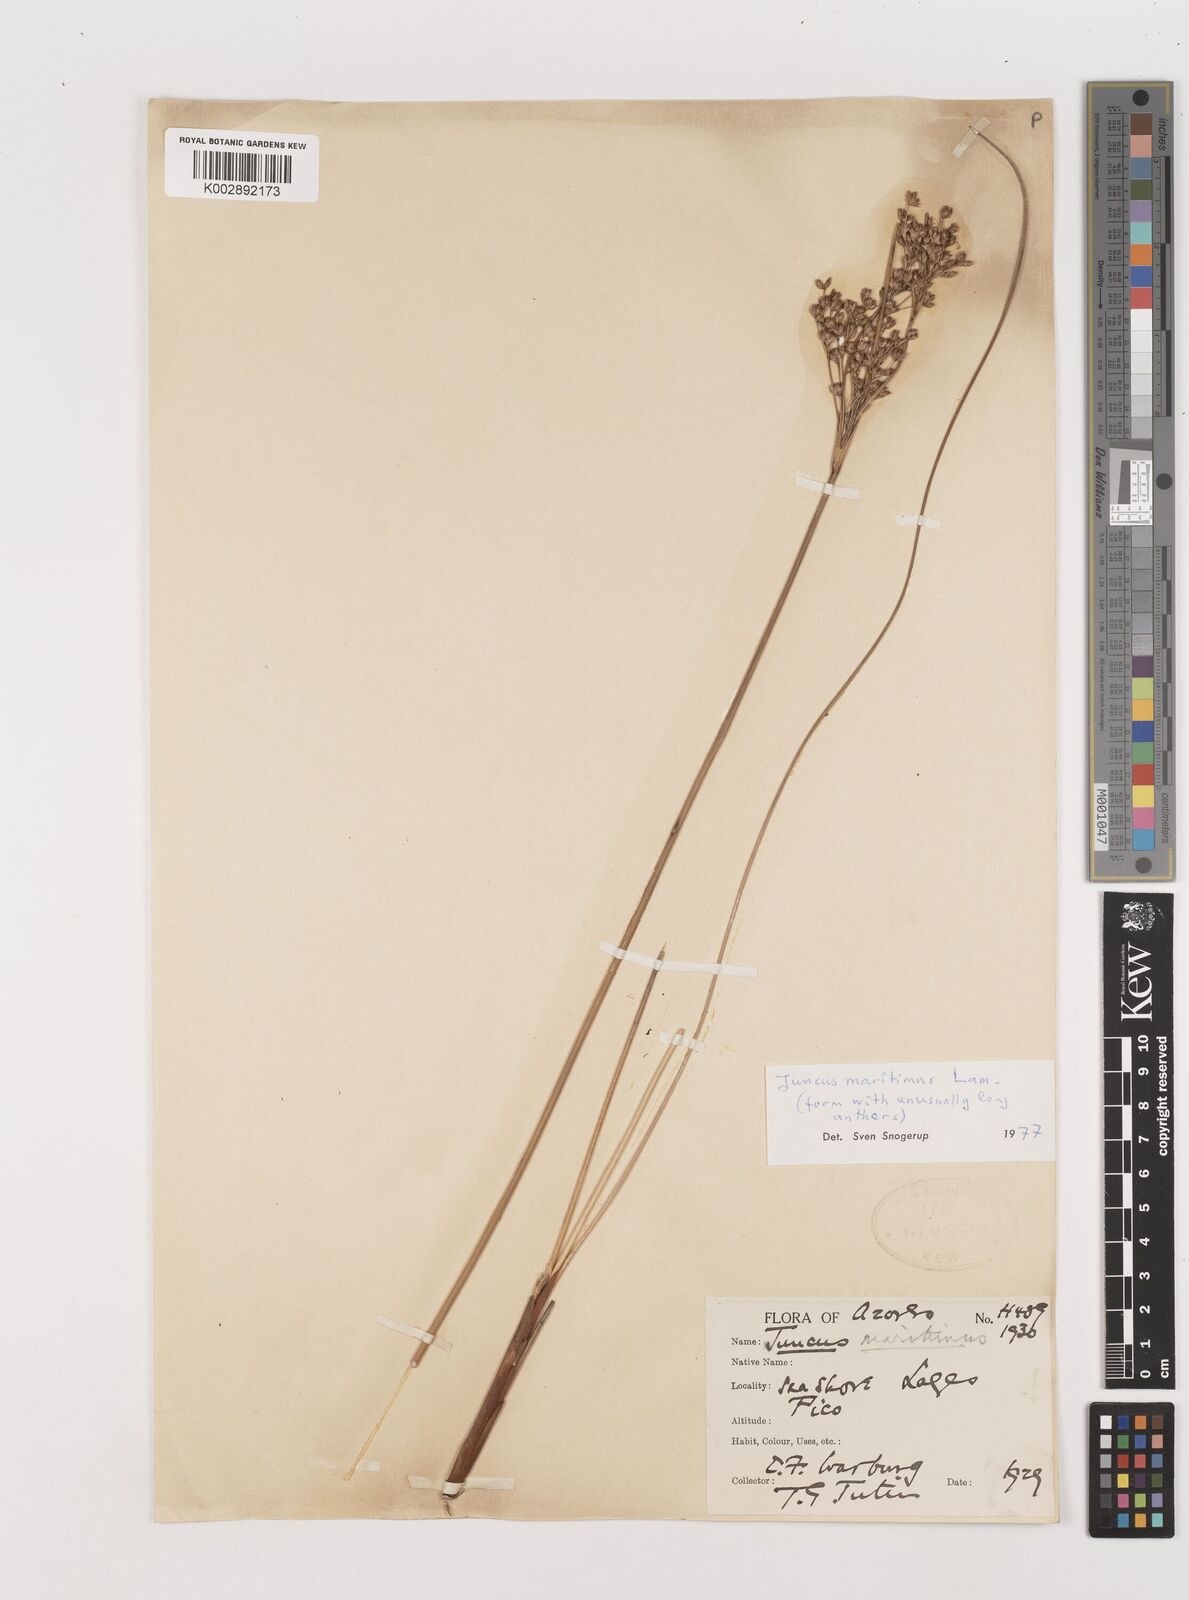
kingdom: Plantae
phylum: Tracheophyta
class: Liliopsida
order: Poales
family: Juncaceae
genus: Juncus
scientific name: Juncus maritimus
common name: Sea rush
